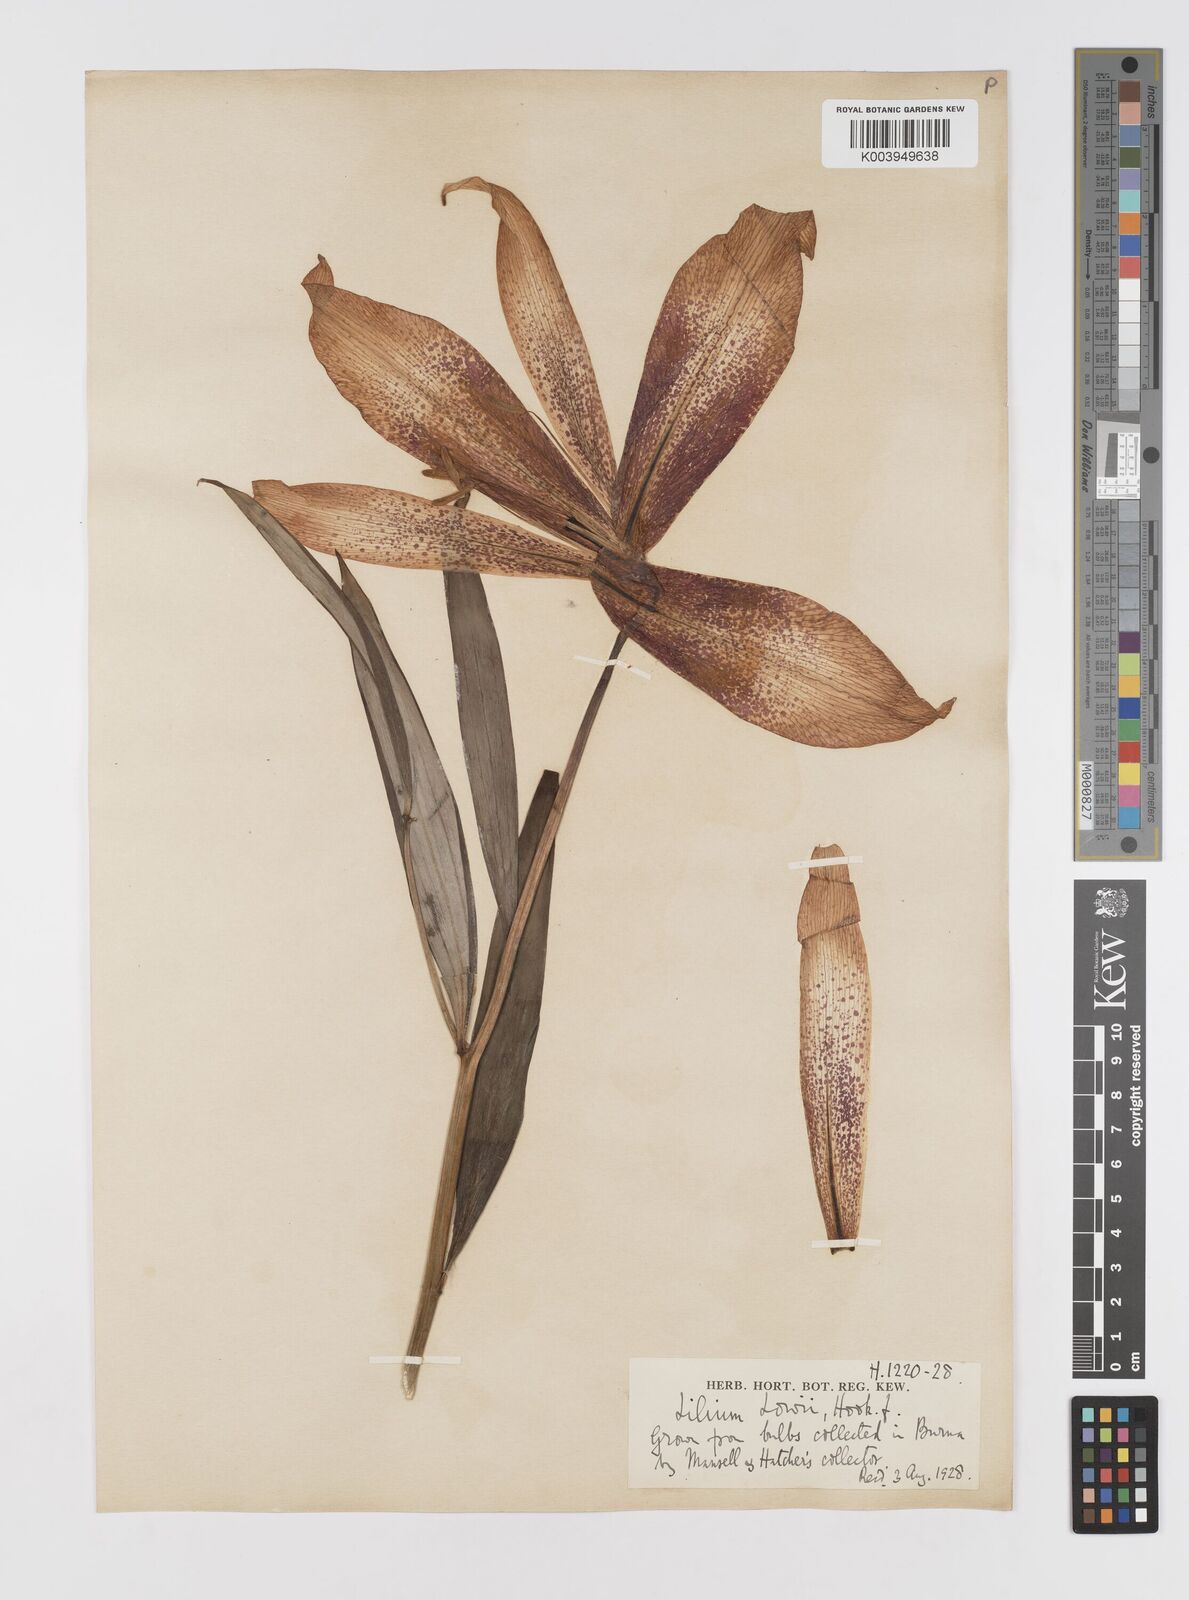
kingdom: Plantae
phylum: Tracheophyta
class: Liliopsida
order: Liliales
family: Liliaceae
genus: Lilium
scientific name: Lilium bakerianum
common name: Baker's lily
